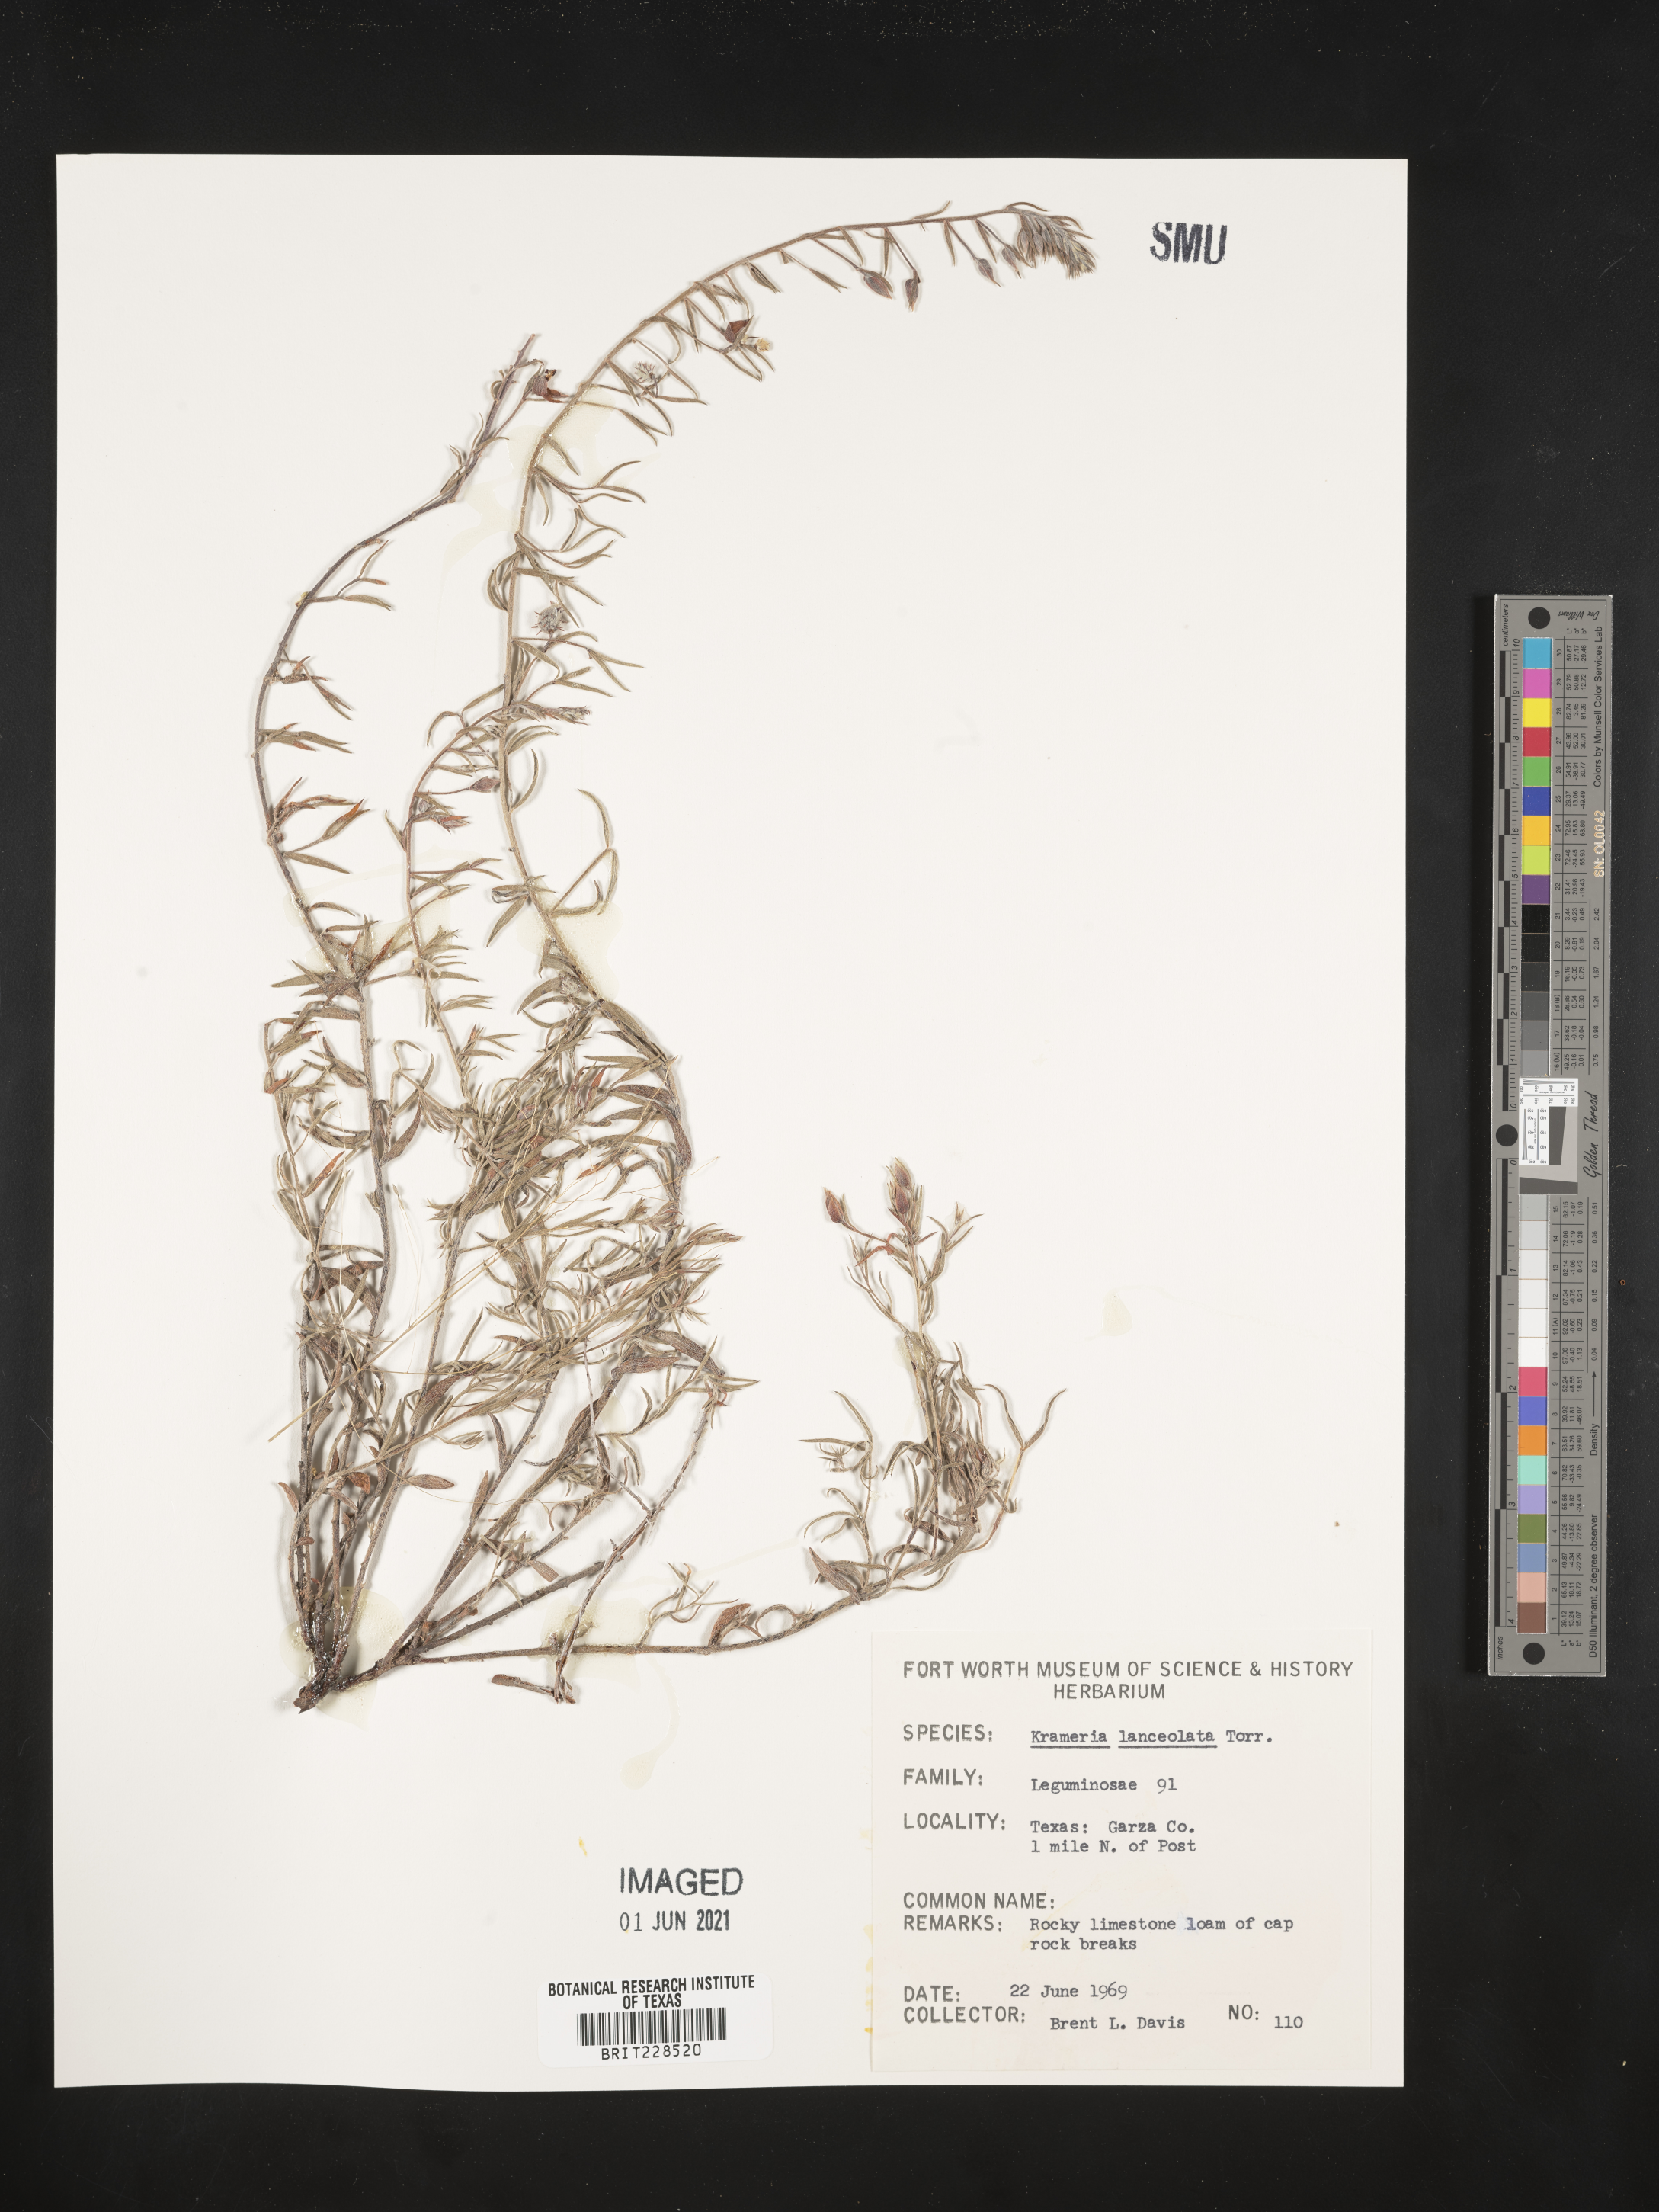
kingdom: Plantae
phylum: Tracheophyta
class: Magnoliopsida
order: Zygophyllales
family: Krameriaceae
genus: Krameria
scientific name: Krameria lanceolata
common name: Ratany
